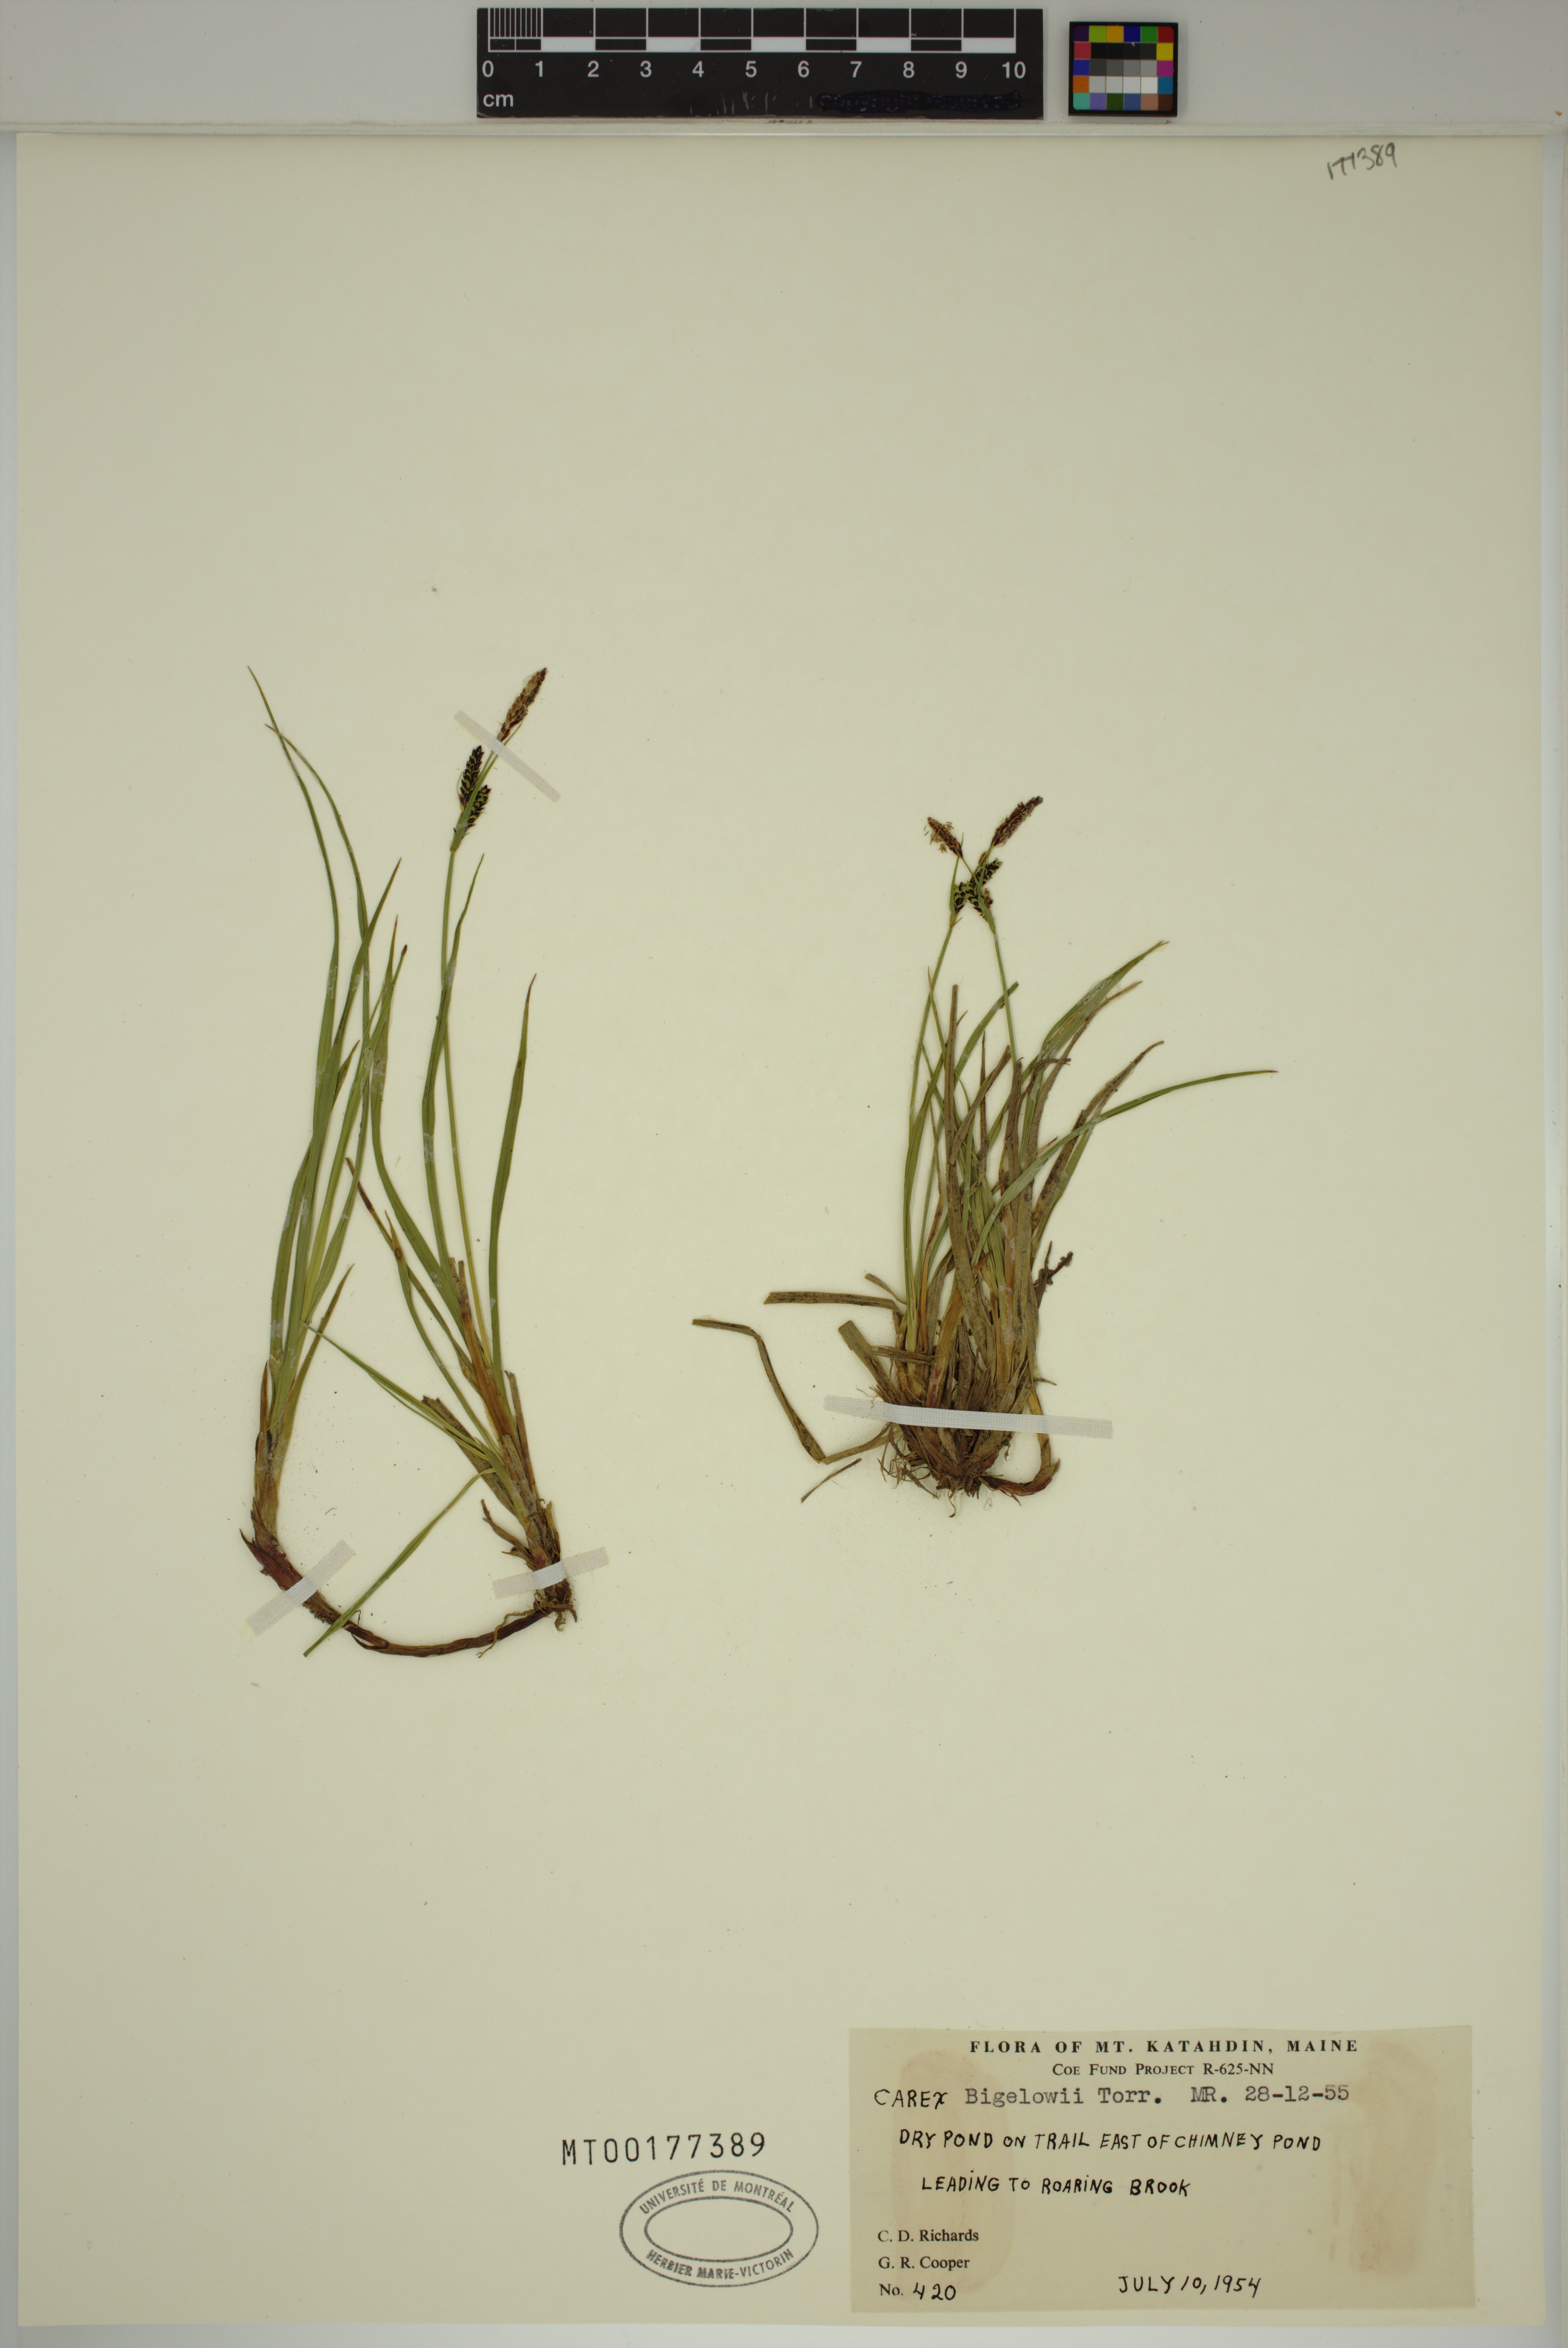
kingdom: Plantae
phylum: Tracheophyta
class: Liliopsida
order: Poales
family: Cyperaceae
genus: Carex
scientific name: Carex bigelowii
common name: Stiff sedge
